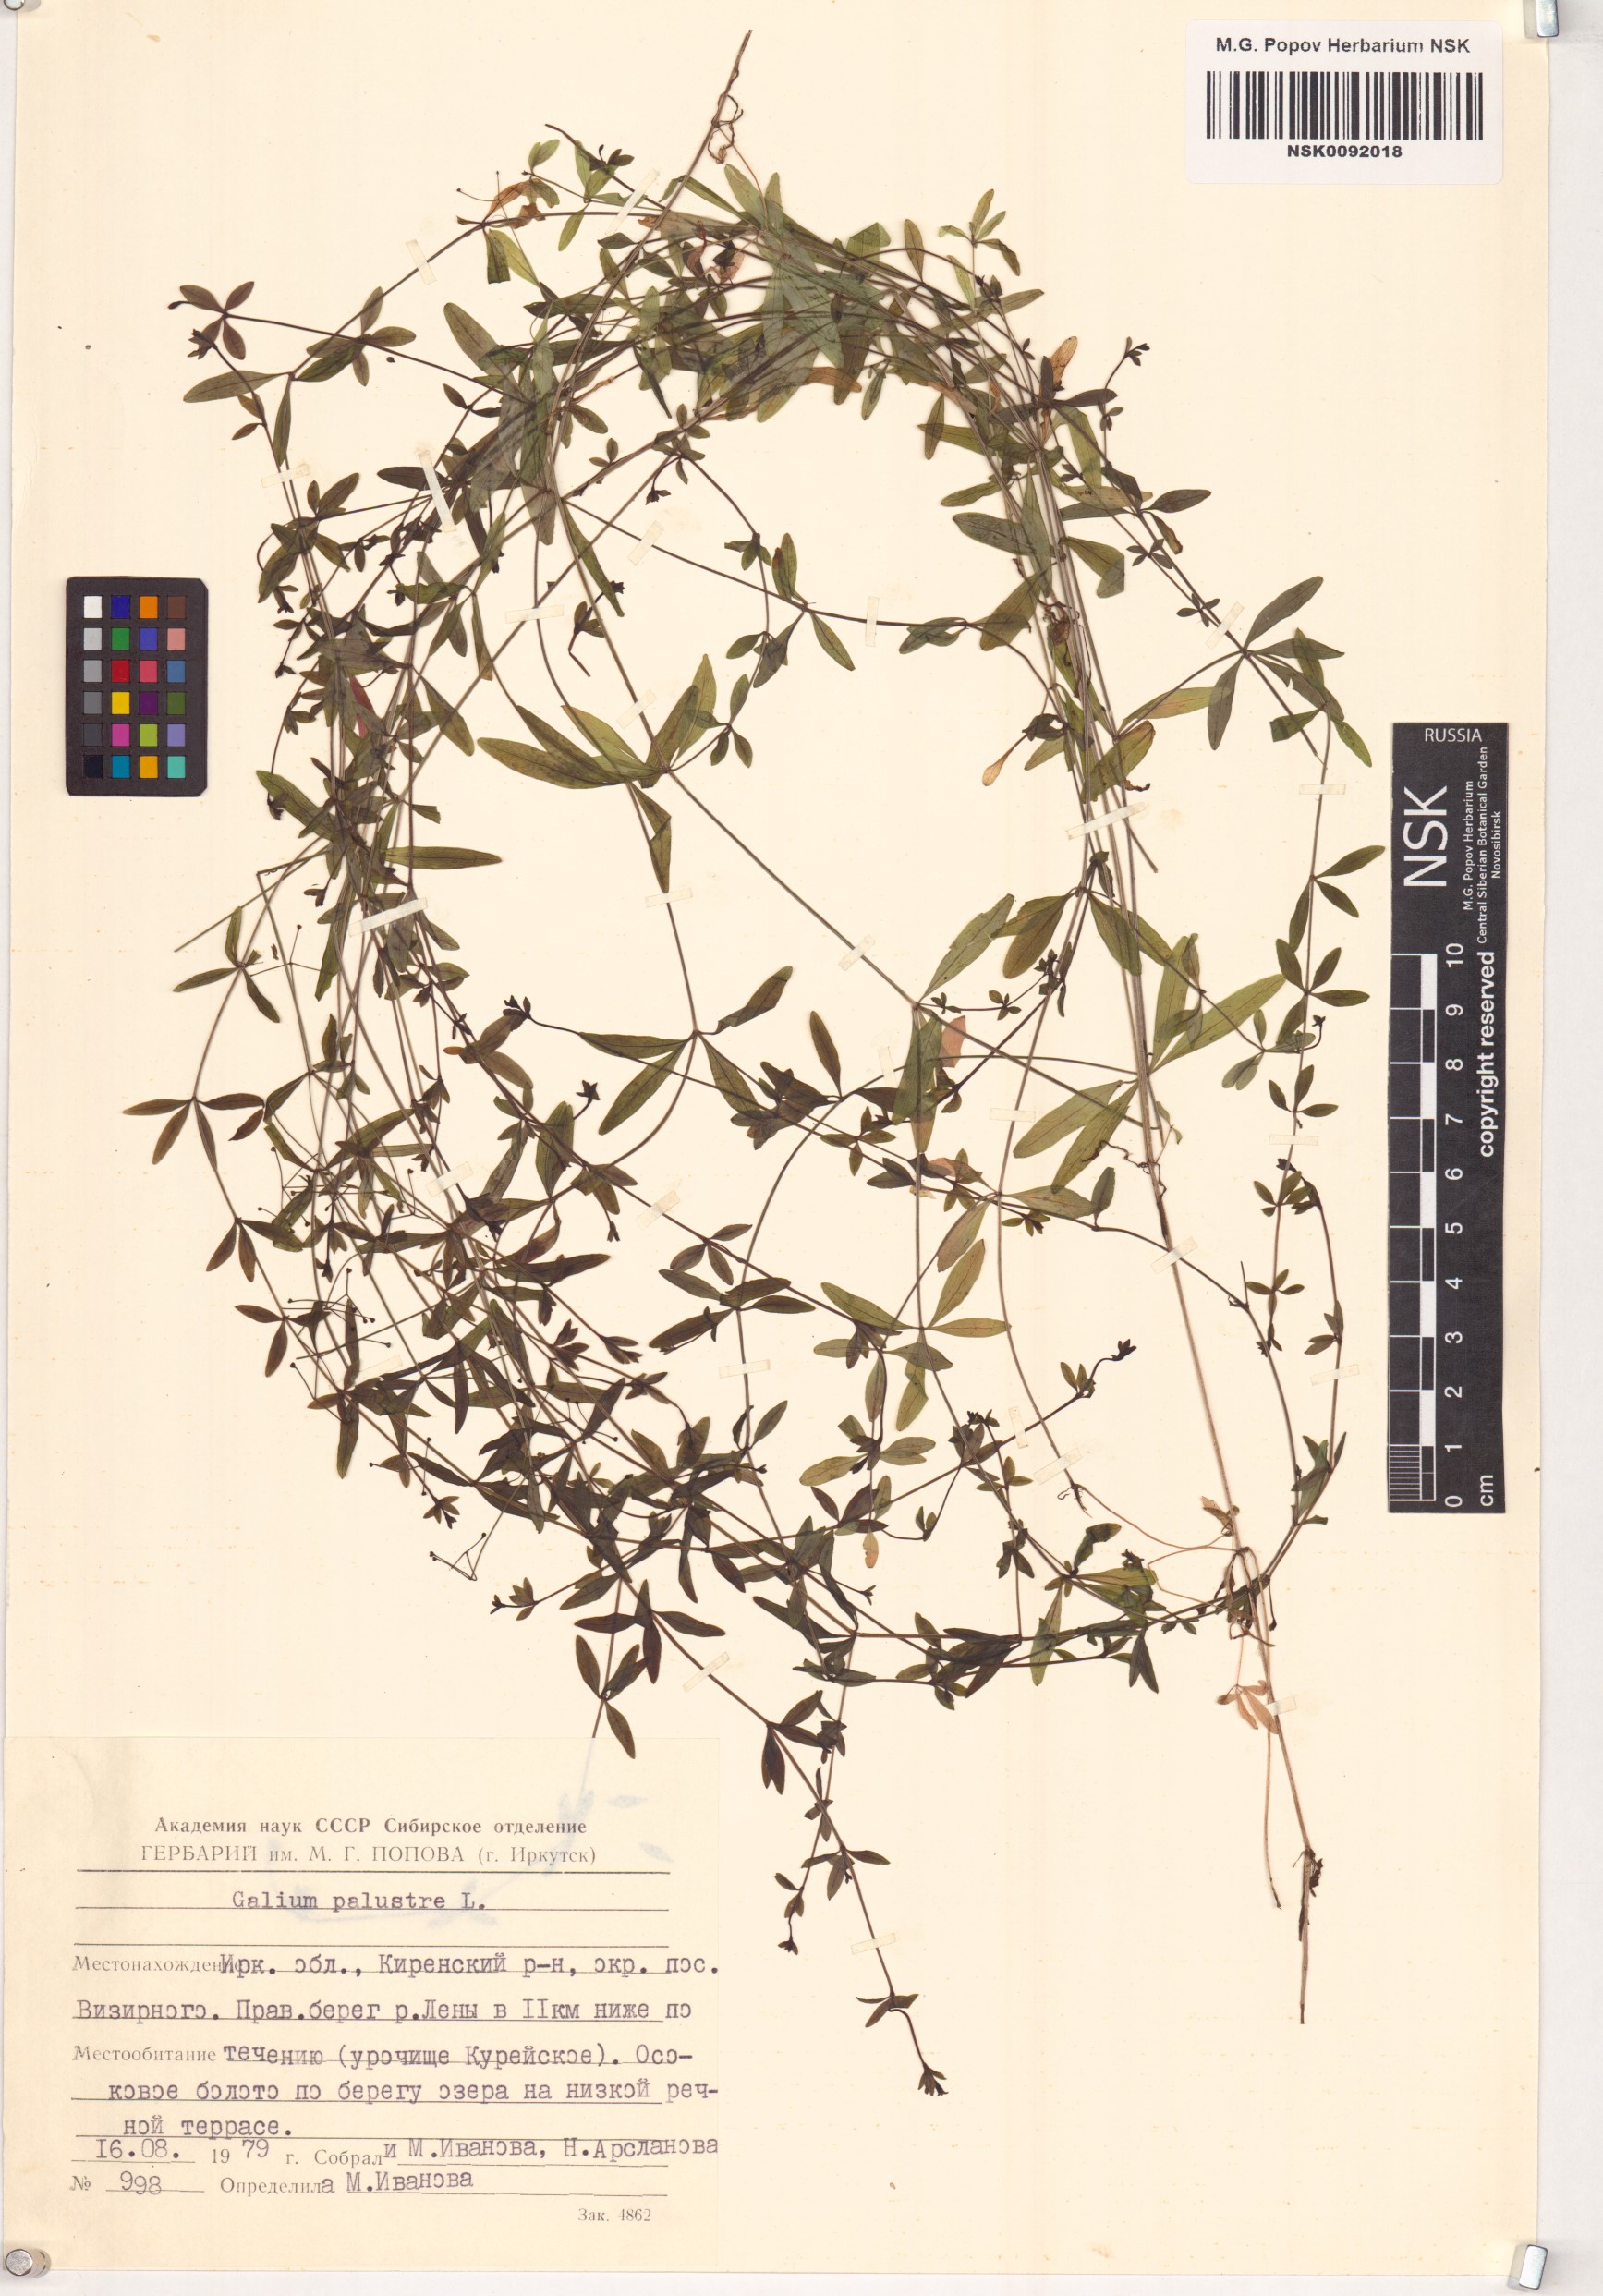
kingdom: Plantae
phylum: Tracheophyta
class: Magnoliopsida
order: Gentianales
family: Rubiaceae
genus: Galium
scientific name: Galium palustre
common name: Common marsh-bedstraw
